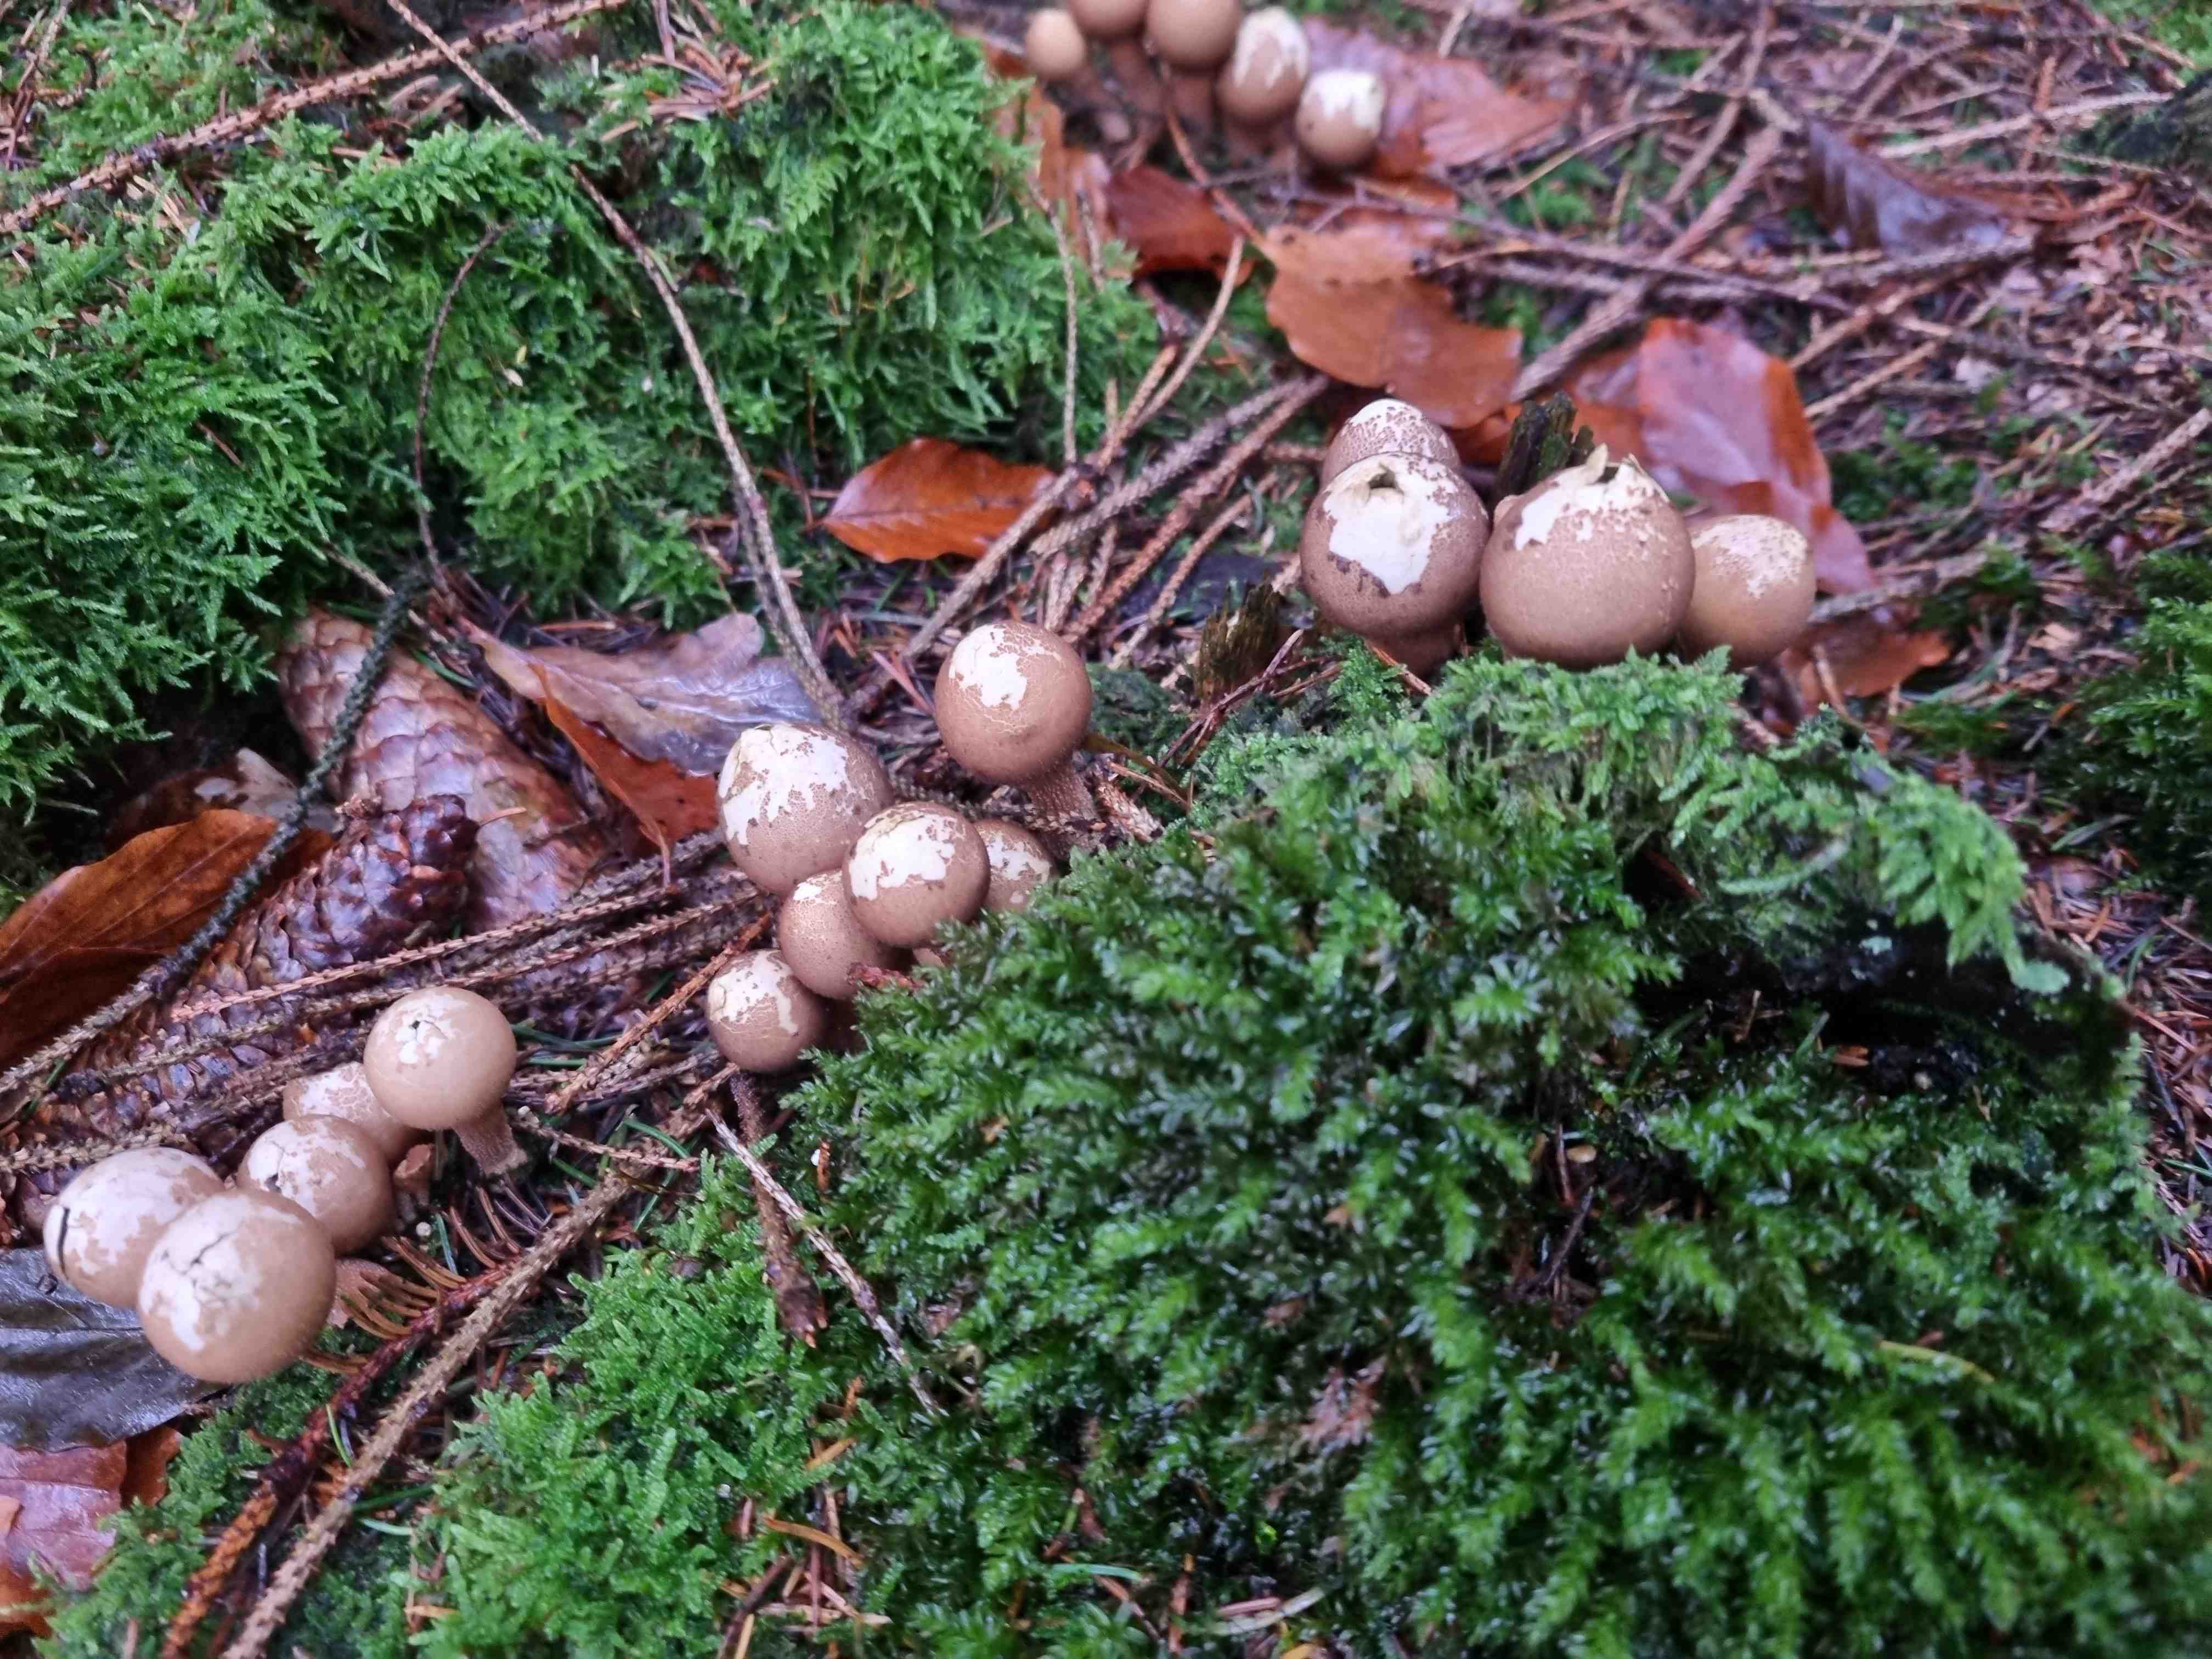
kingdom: Fungi
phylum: Basidiomycota
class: Agaricomycetes
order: Agaricales
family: Lycoperdaceae
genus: Apioperdon
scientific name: Apioperdon pyriforme
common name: pære-støvbold
